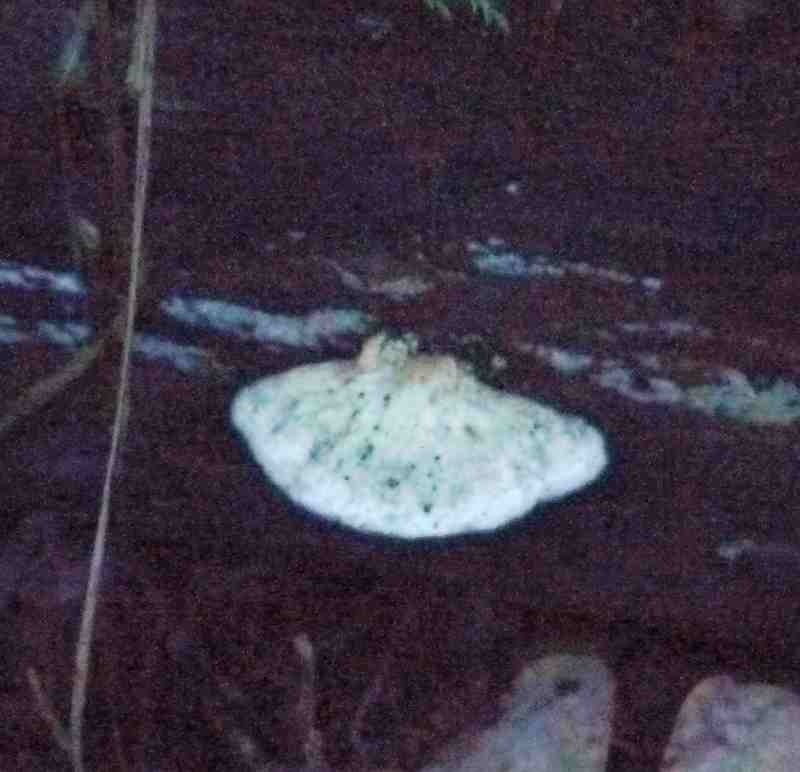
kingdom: Fungi
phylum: Basidiomycota
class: Agaricomycetes
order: Polyporales
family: Polyporaceae
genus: Cyanosporus
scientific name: Cyanosporus alni
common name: blegblå kødporesvamp
